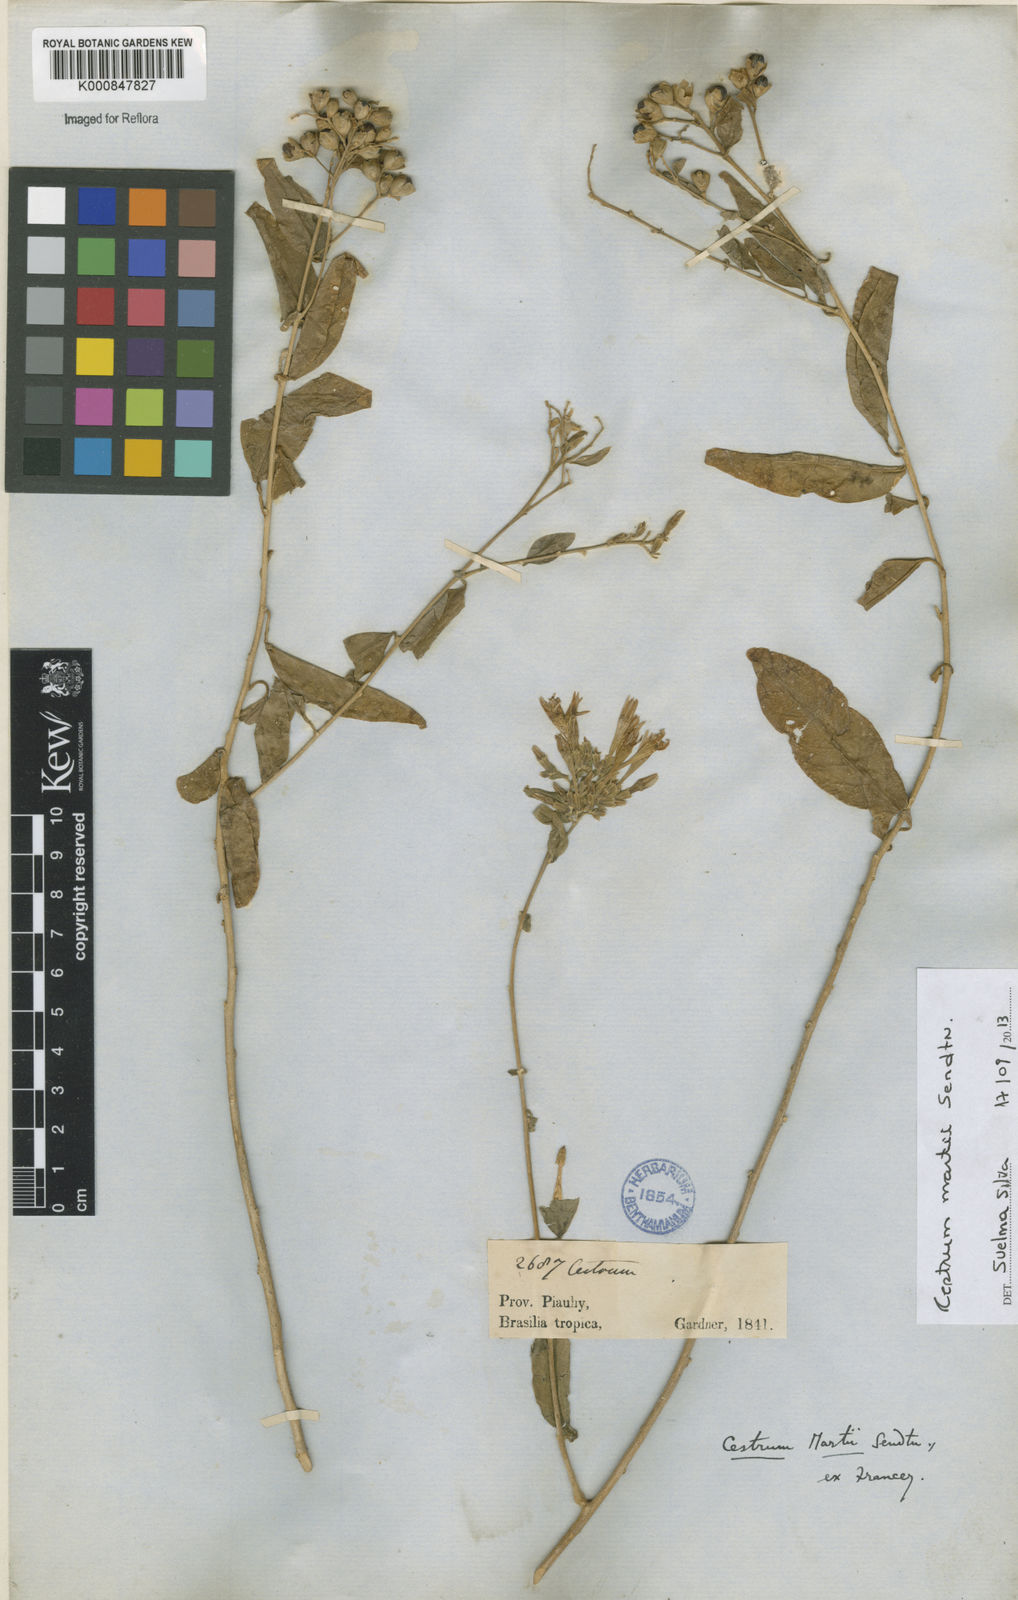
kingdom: Plantae
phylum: Tracheophyta
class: Magnoliopsida
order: Solanales
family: Solanaceae
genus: Cestrum
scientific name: Cestrum martii
